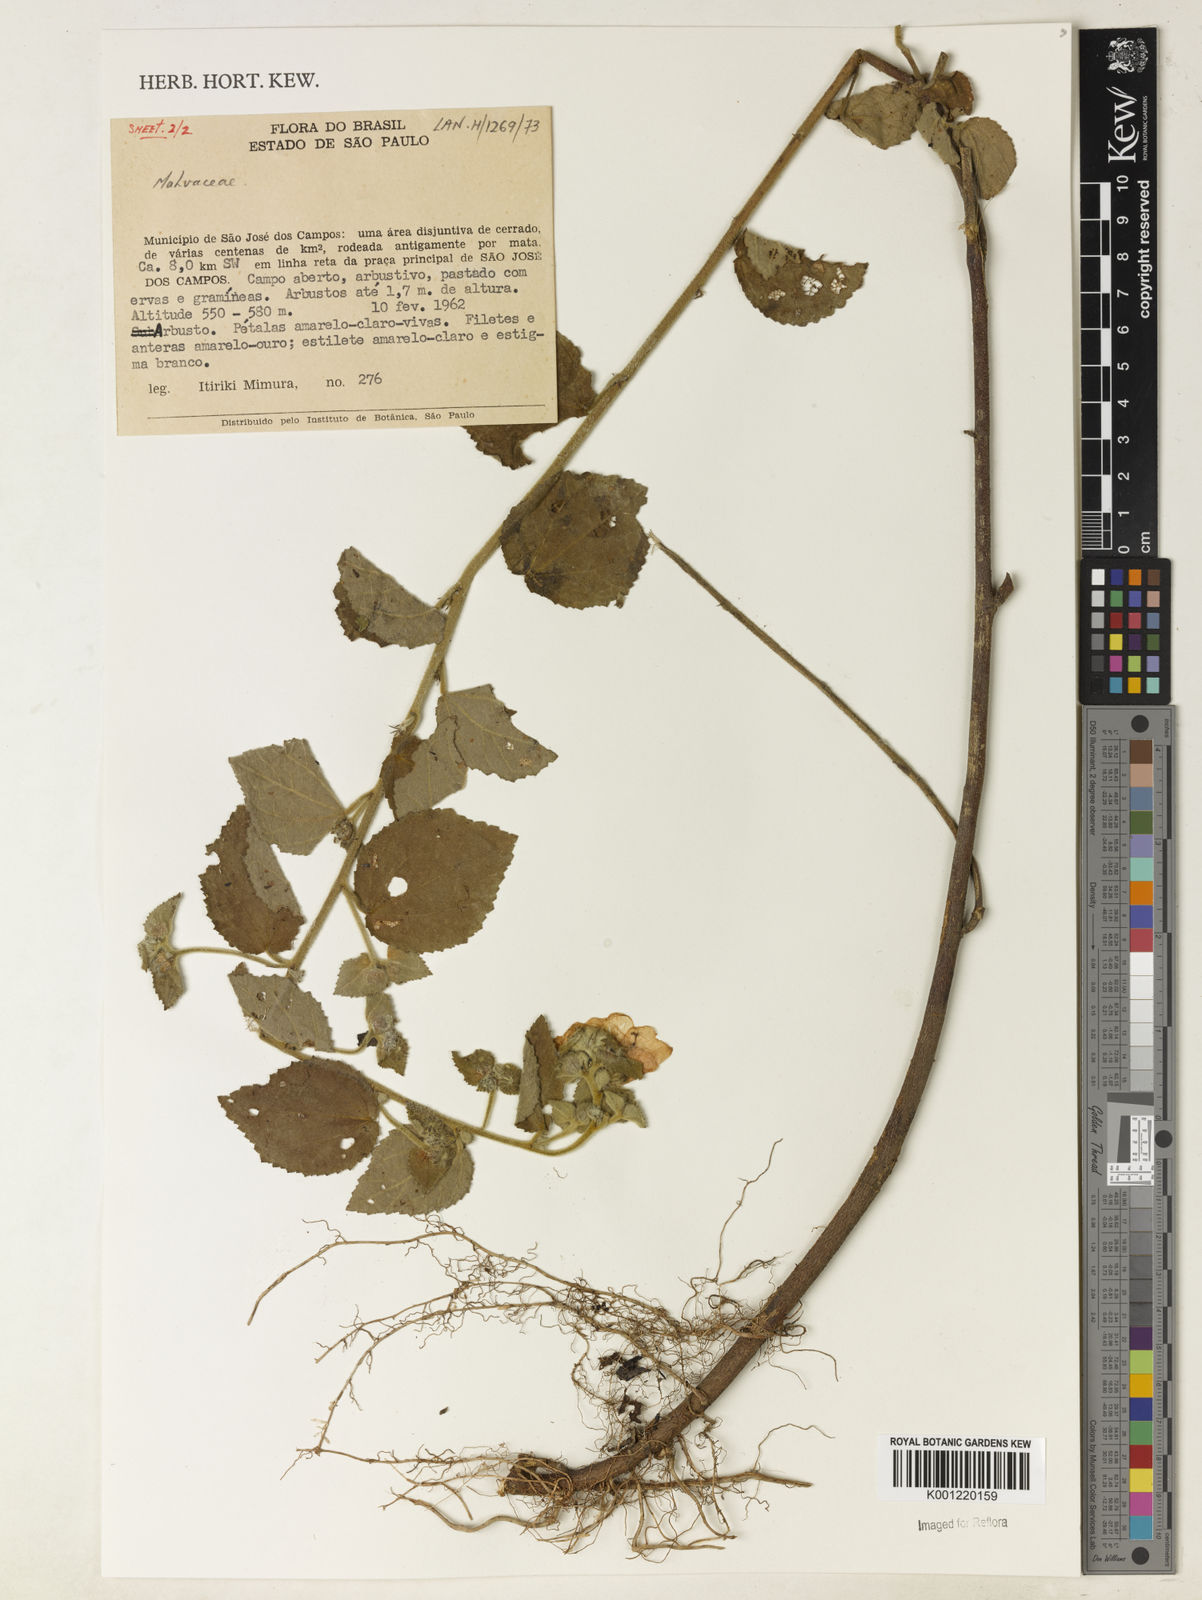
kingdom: Plantae
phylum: Tracheophyta
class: Magnoliopsida
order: Malvales
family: Malvaceae
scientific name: Malvaceae
